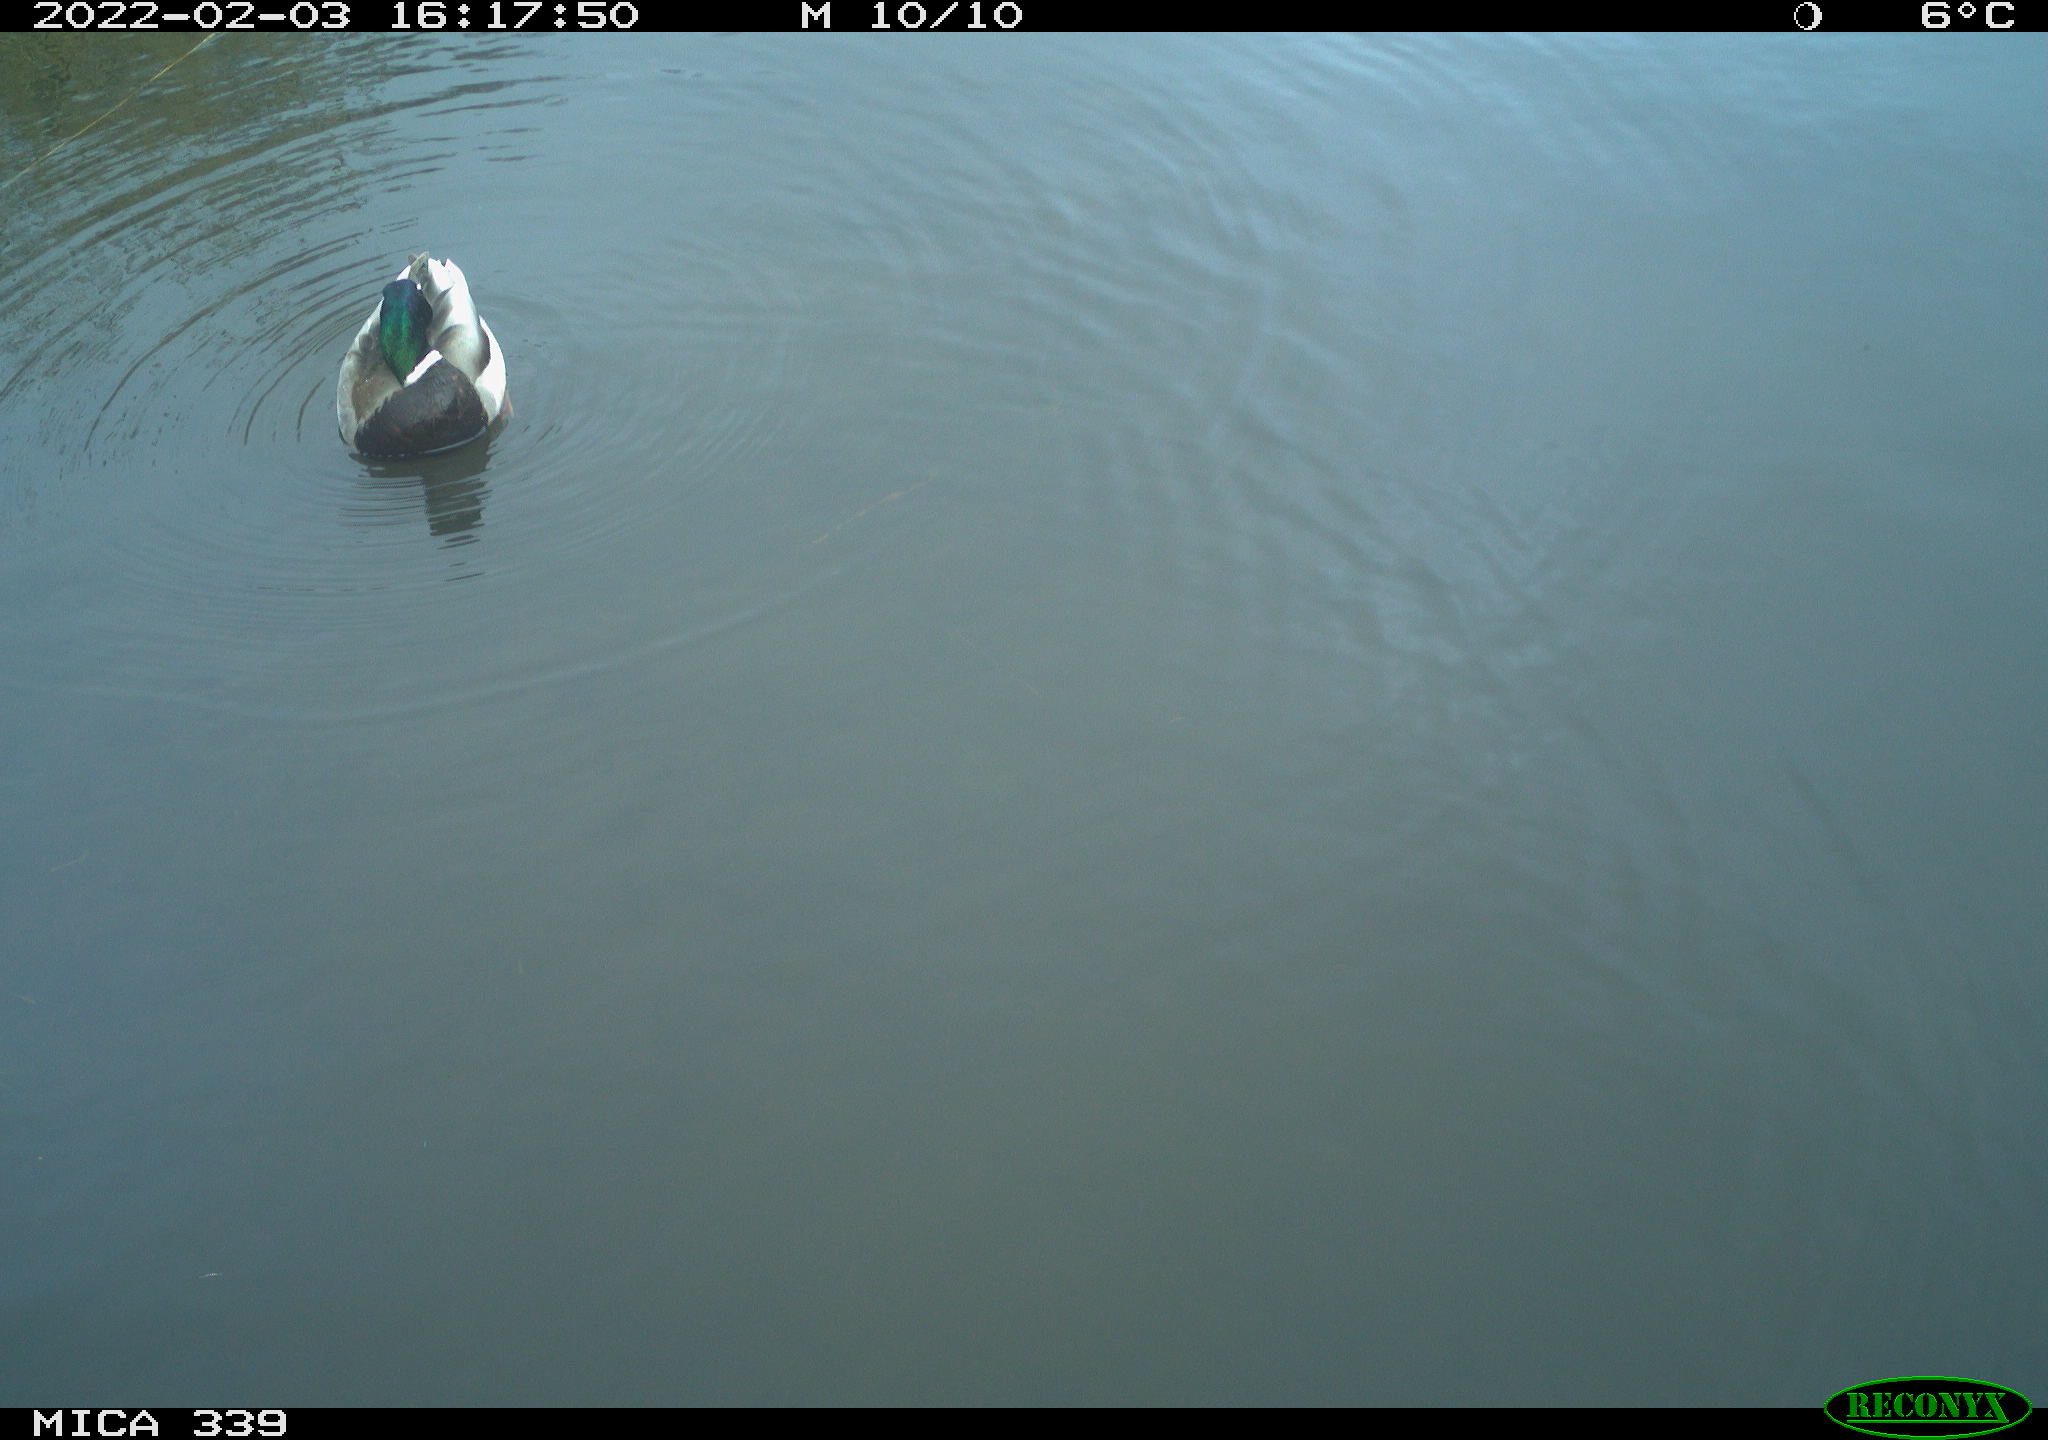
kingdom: Animalia
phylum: Chordata
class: Aves
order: Anseriformes
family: Anatidae
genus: Anas
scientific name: Anas platyrhynchos
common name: Mallard
